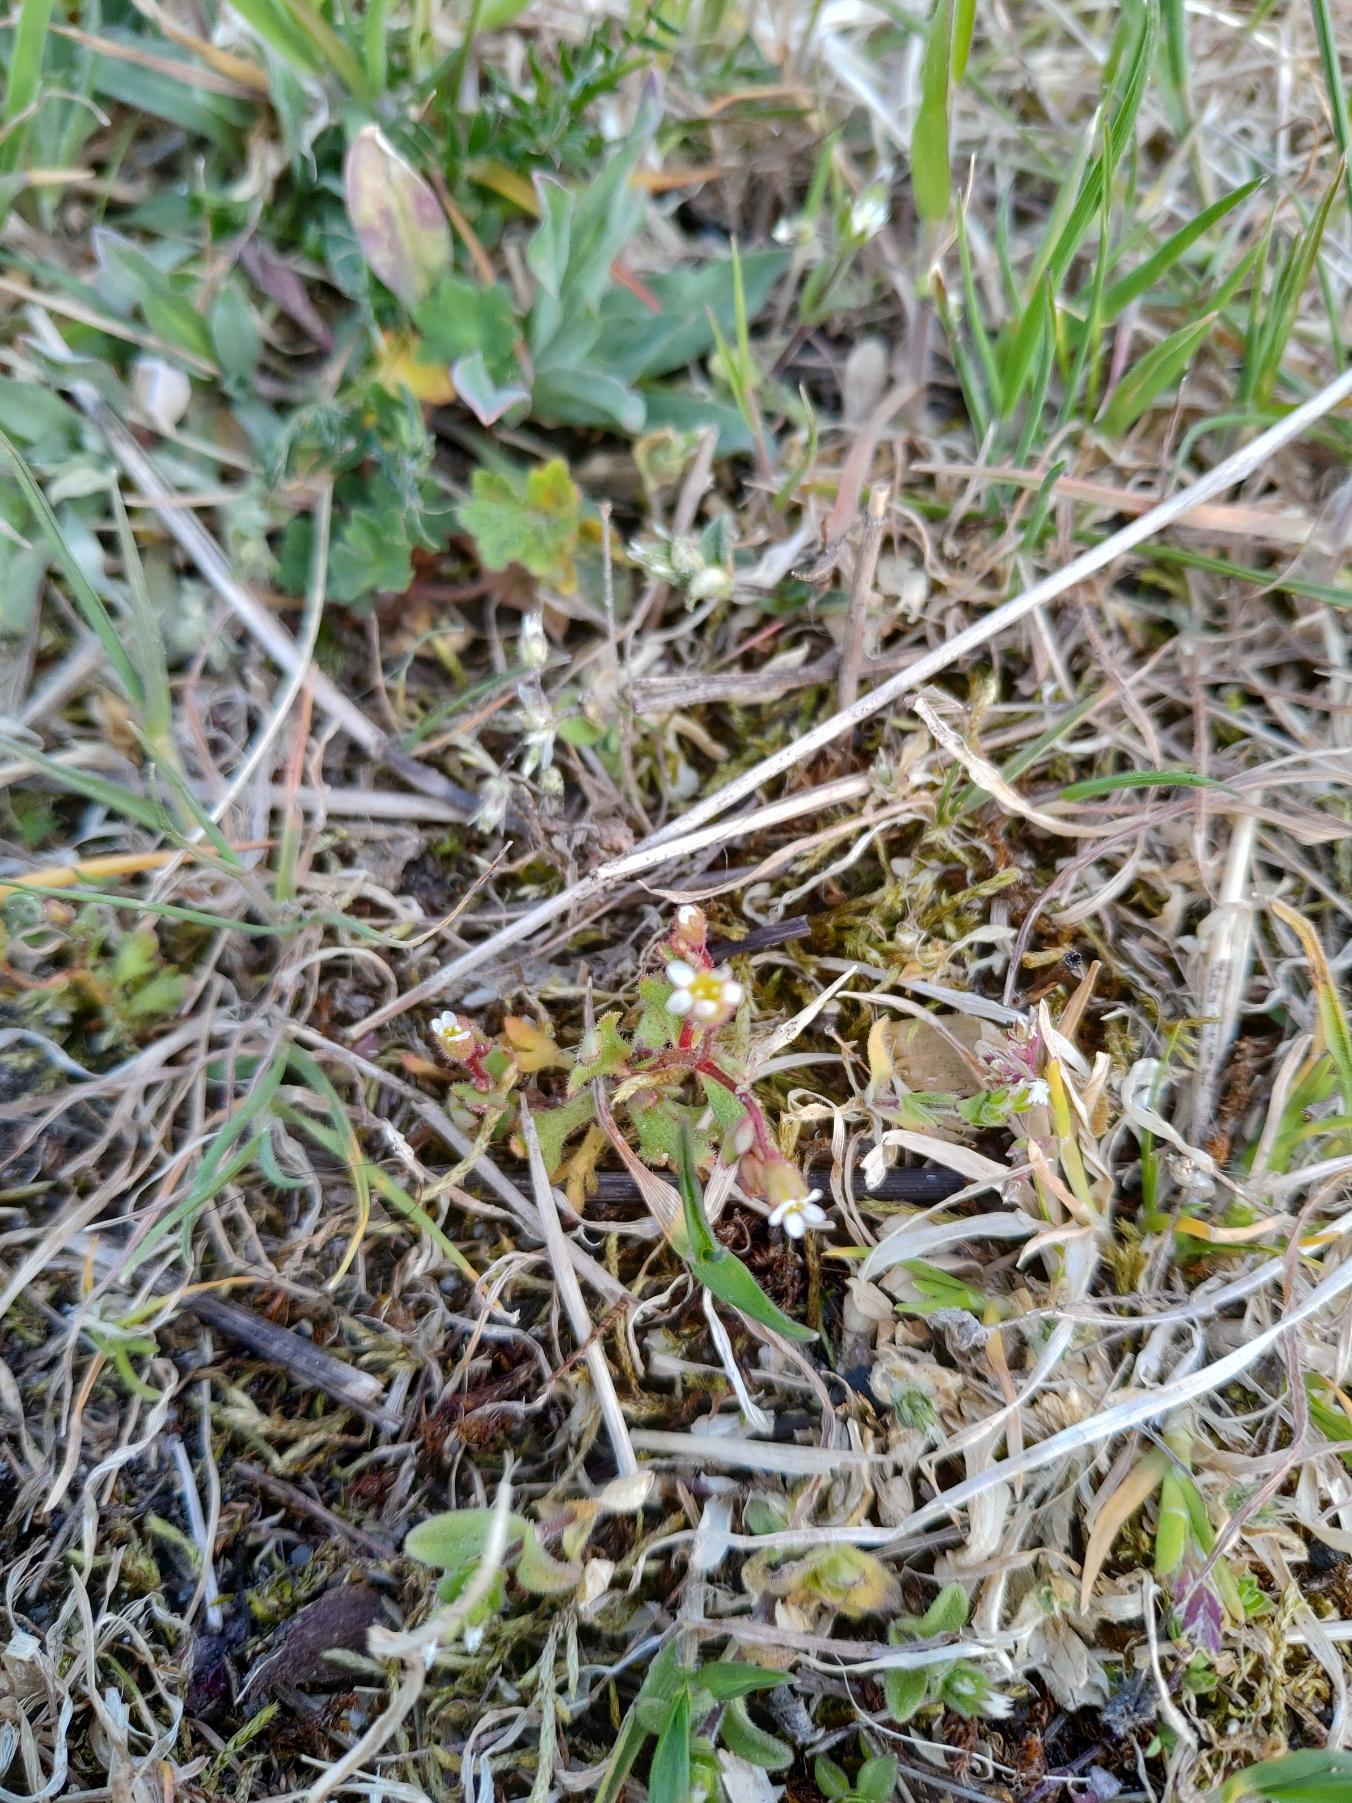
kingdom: Plantae
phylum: Tracheophyta
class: Magnoliopsida
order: Saxifragales
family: Saxifragaceae
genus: Saxifraga
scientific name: Saxifraga tridactylites
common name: Trekløft-stenbræk
